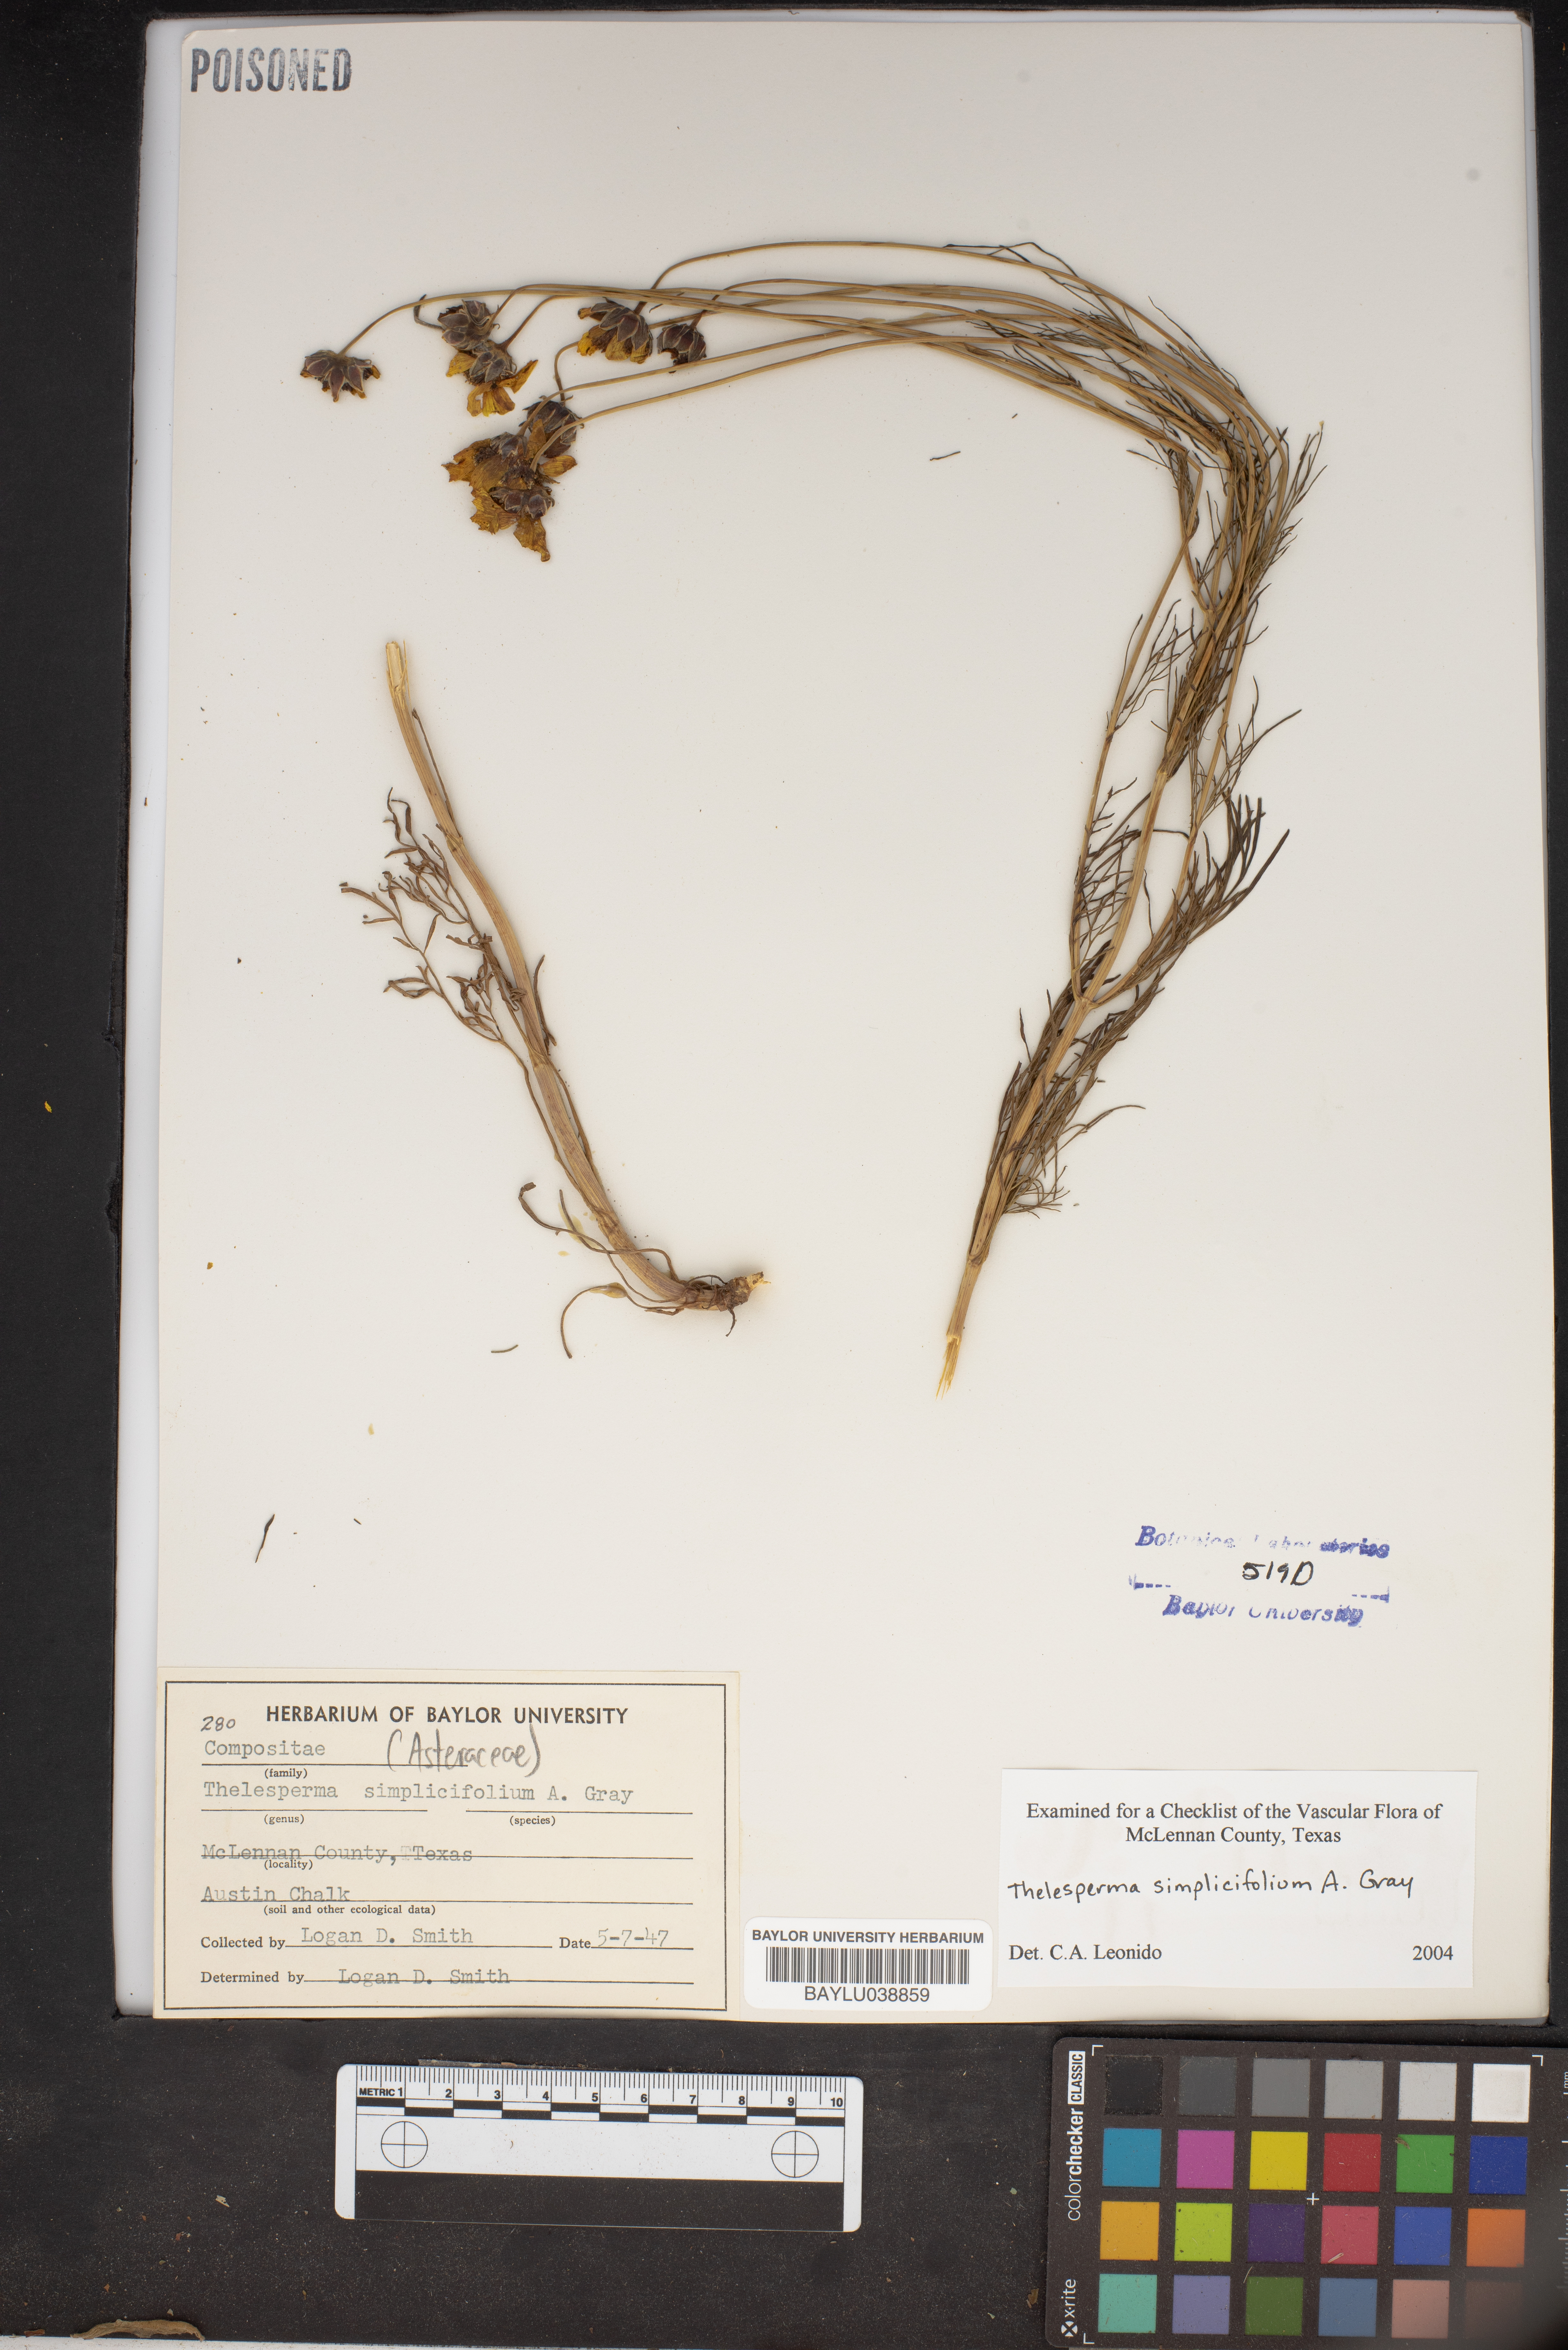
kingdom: Plantae
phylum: Tracheophyta
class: Magnoliopsida
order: Asterales
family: Asteraceae
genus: Thelesperma
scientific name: Thelesperma simplicifolium
